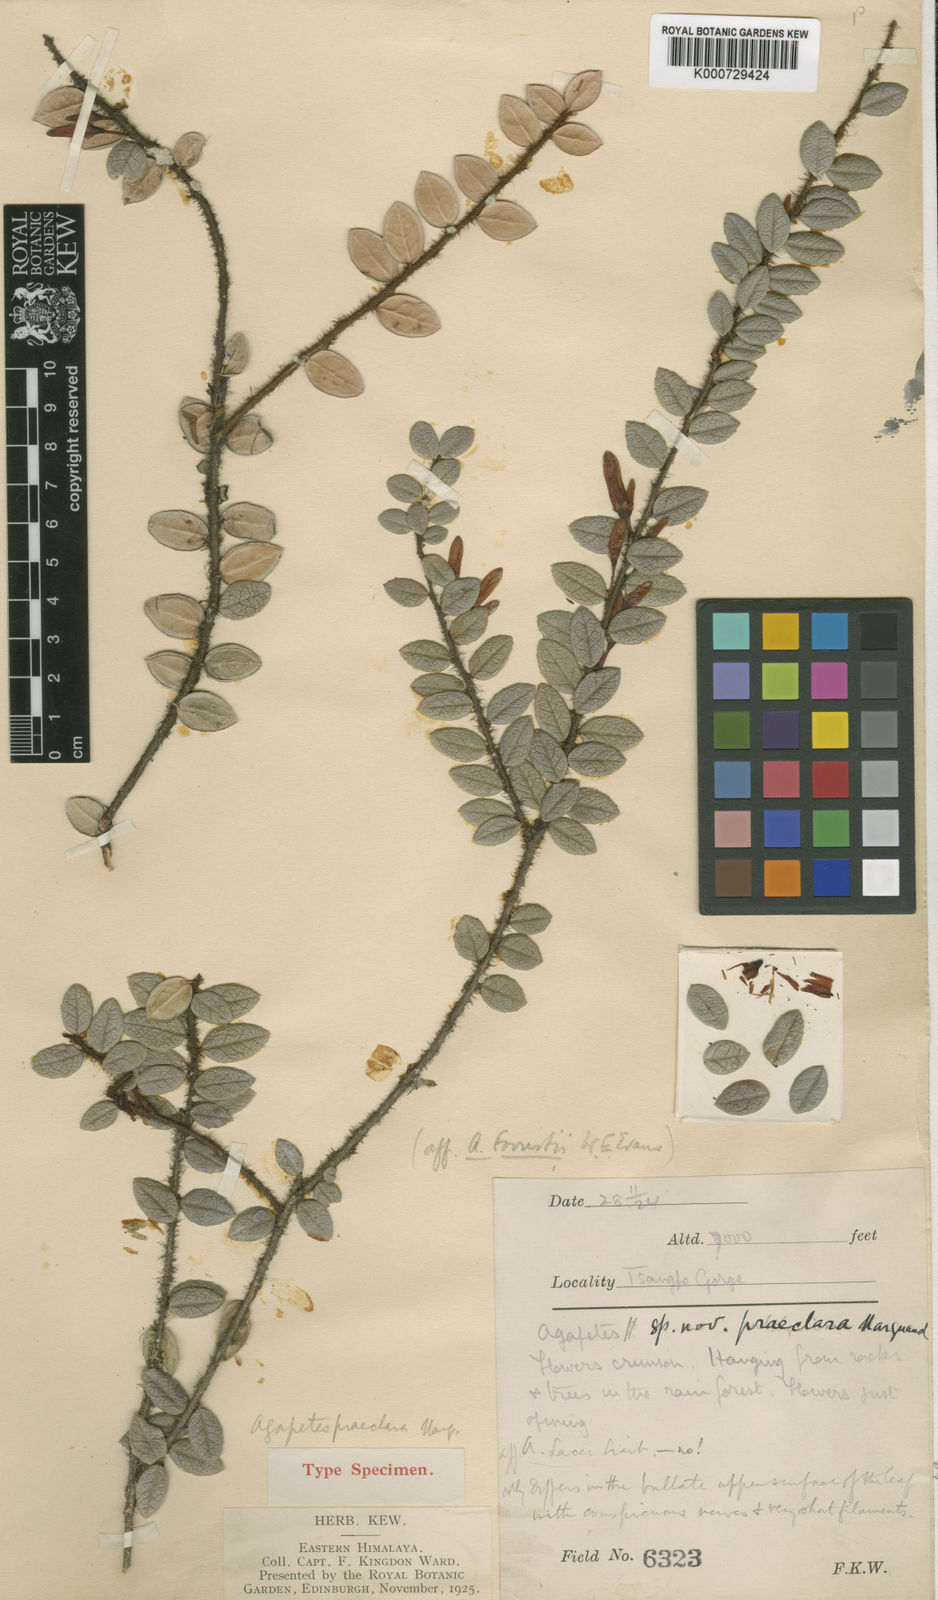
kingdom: Plantae
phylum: Tracheophyta
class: Magnoliopsida
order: Ericales
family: Ericaceae
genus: Agapetes
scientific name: Agapetes praeclara
